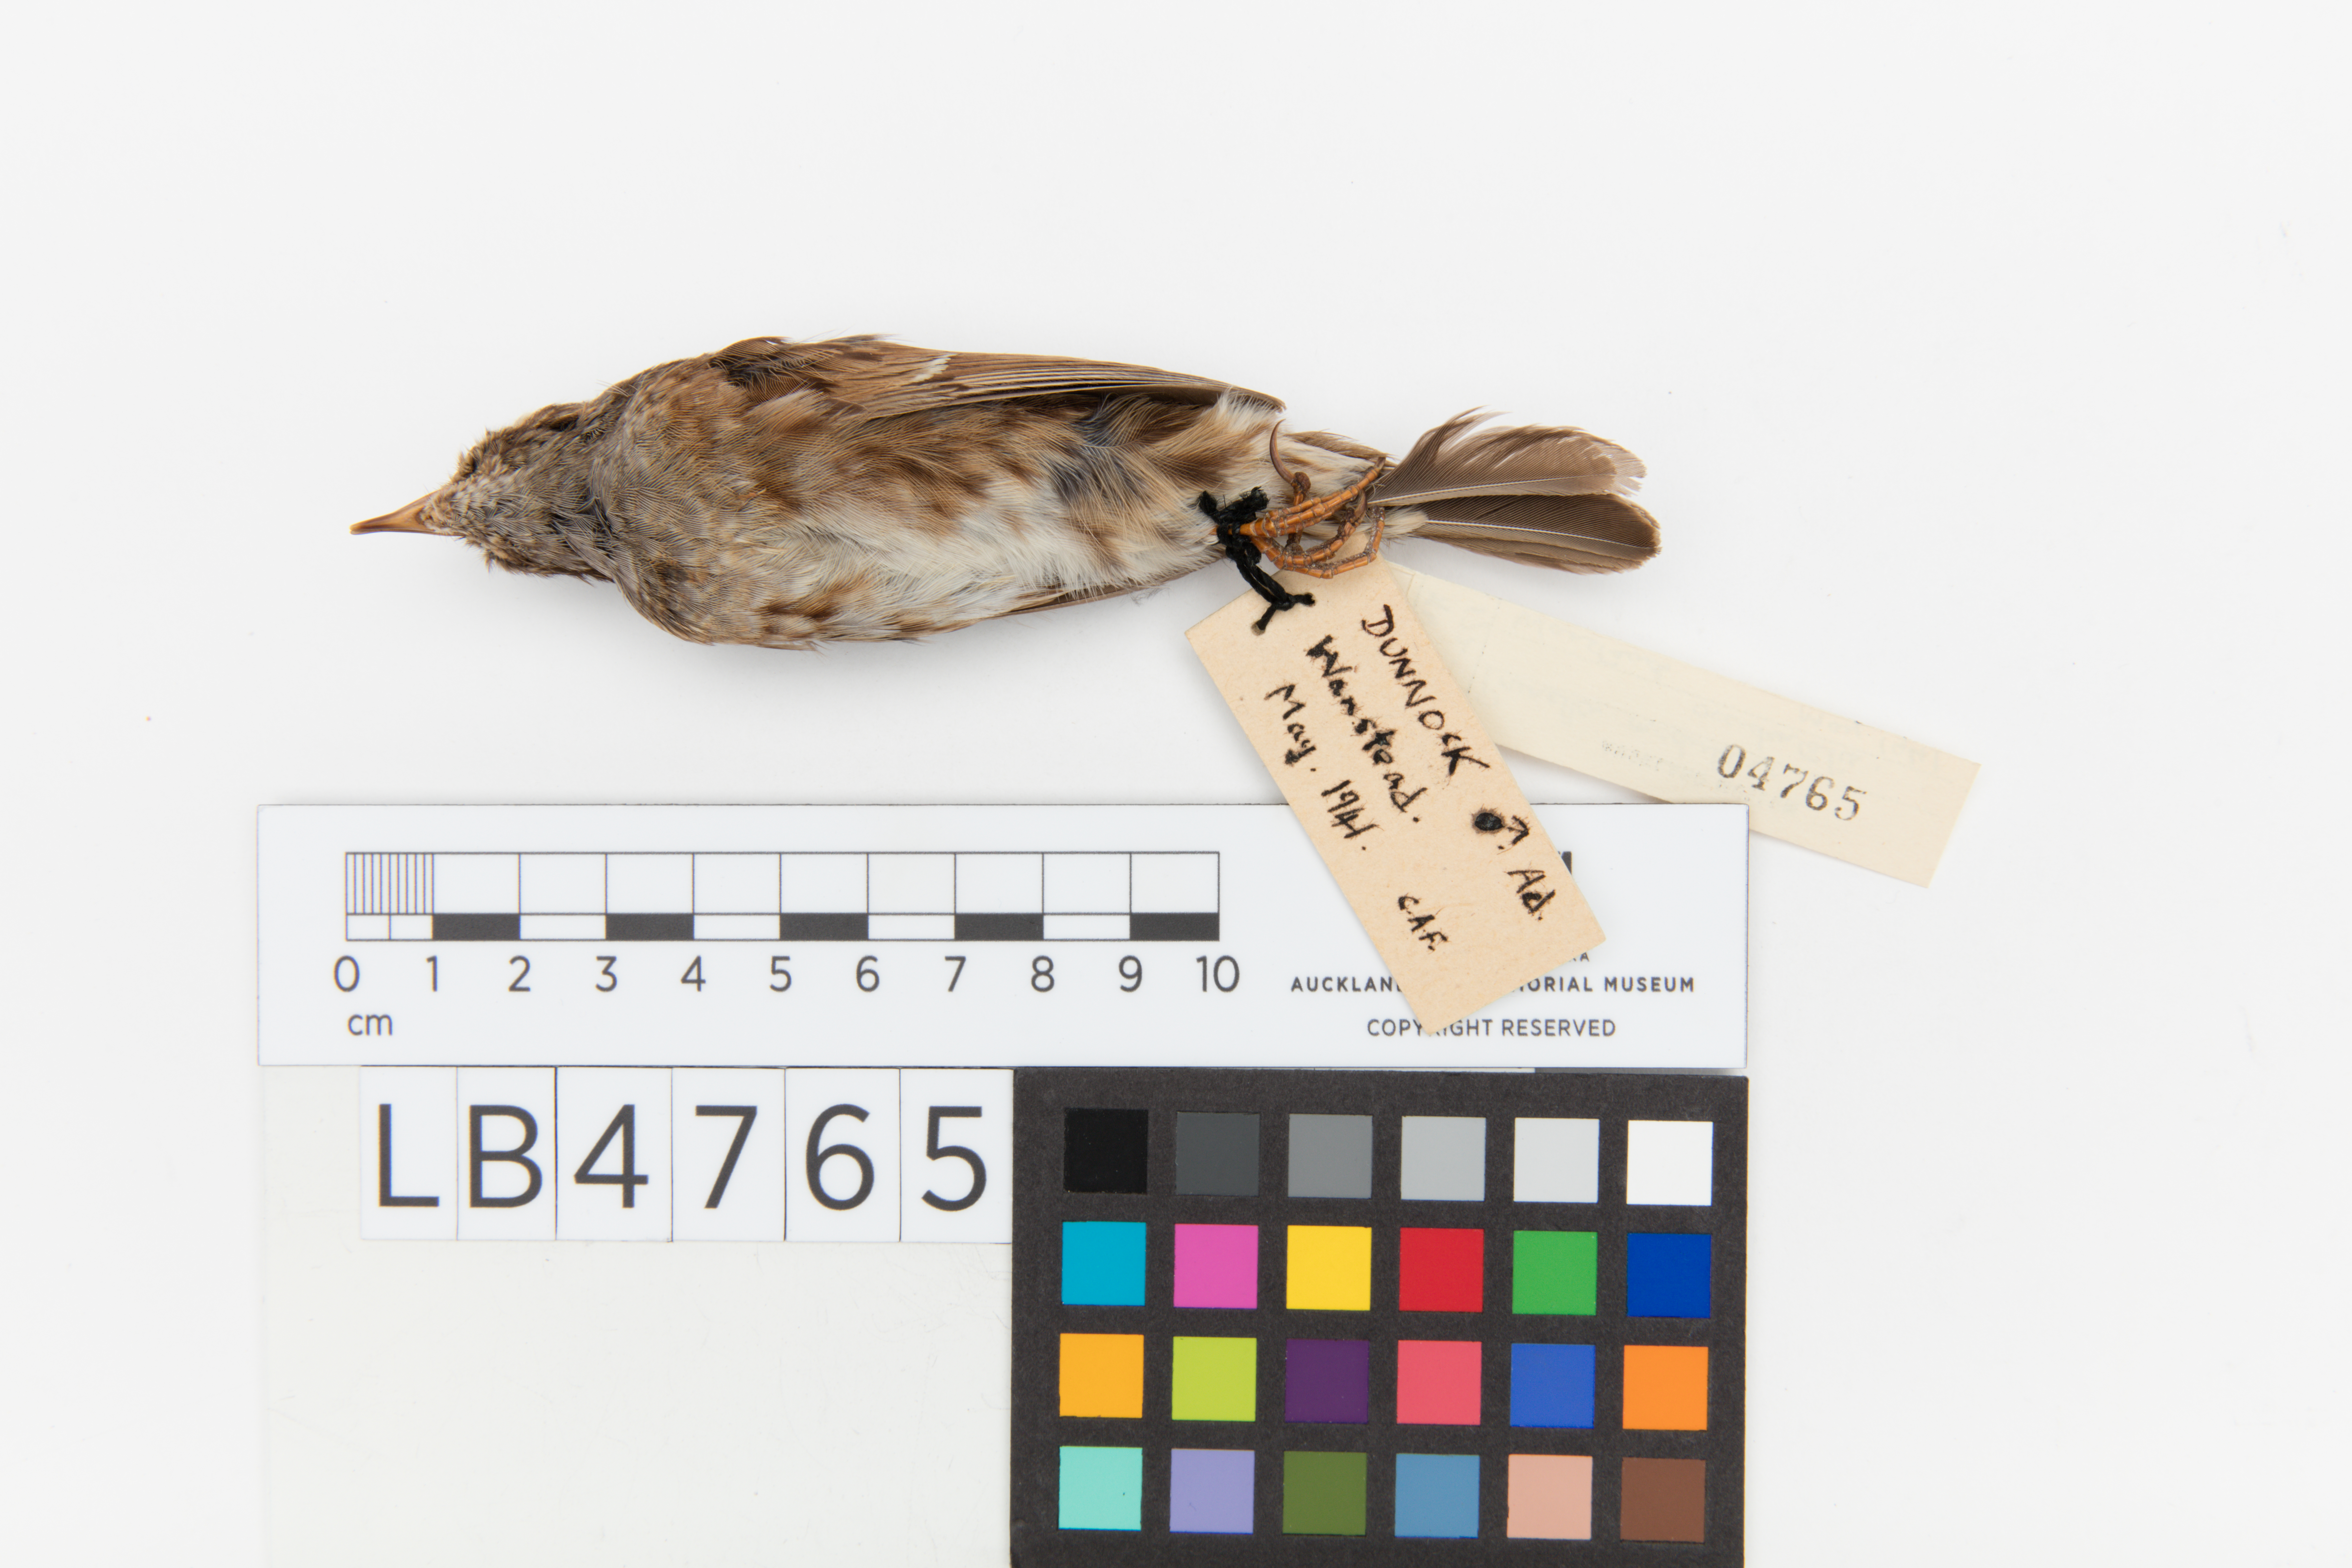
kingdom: Animalia
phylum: Chordata
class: Aves
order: Passeriformes
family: Prunellidae
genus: Prunella
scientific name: Prunella modularis
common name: Dunnock
